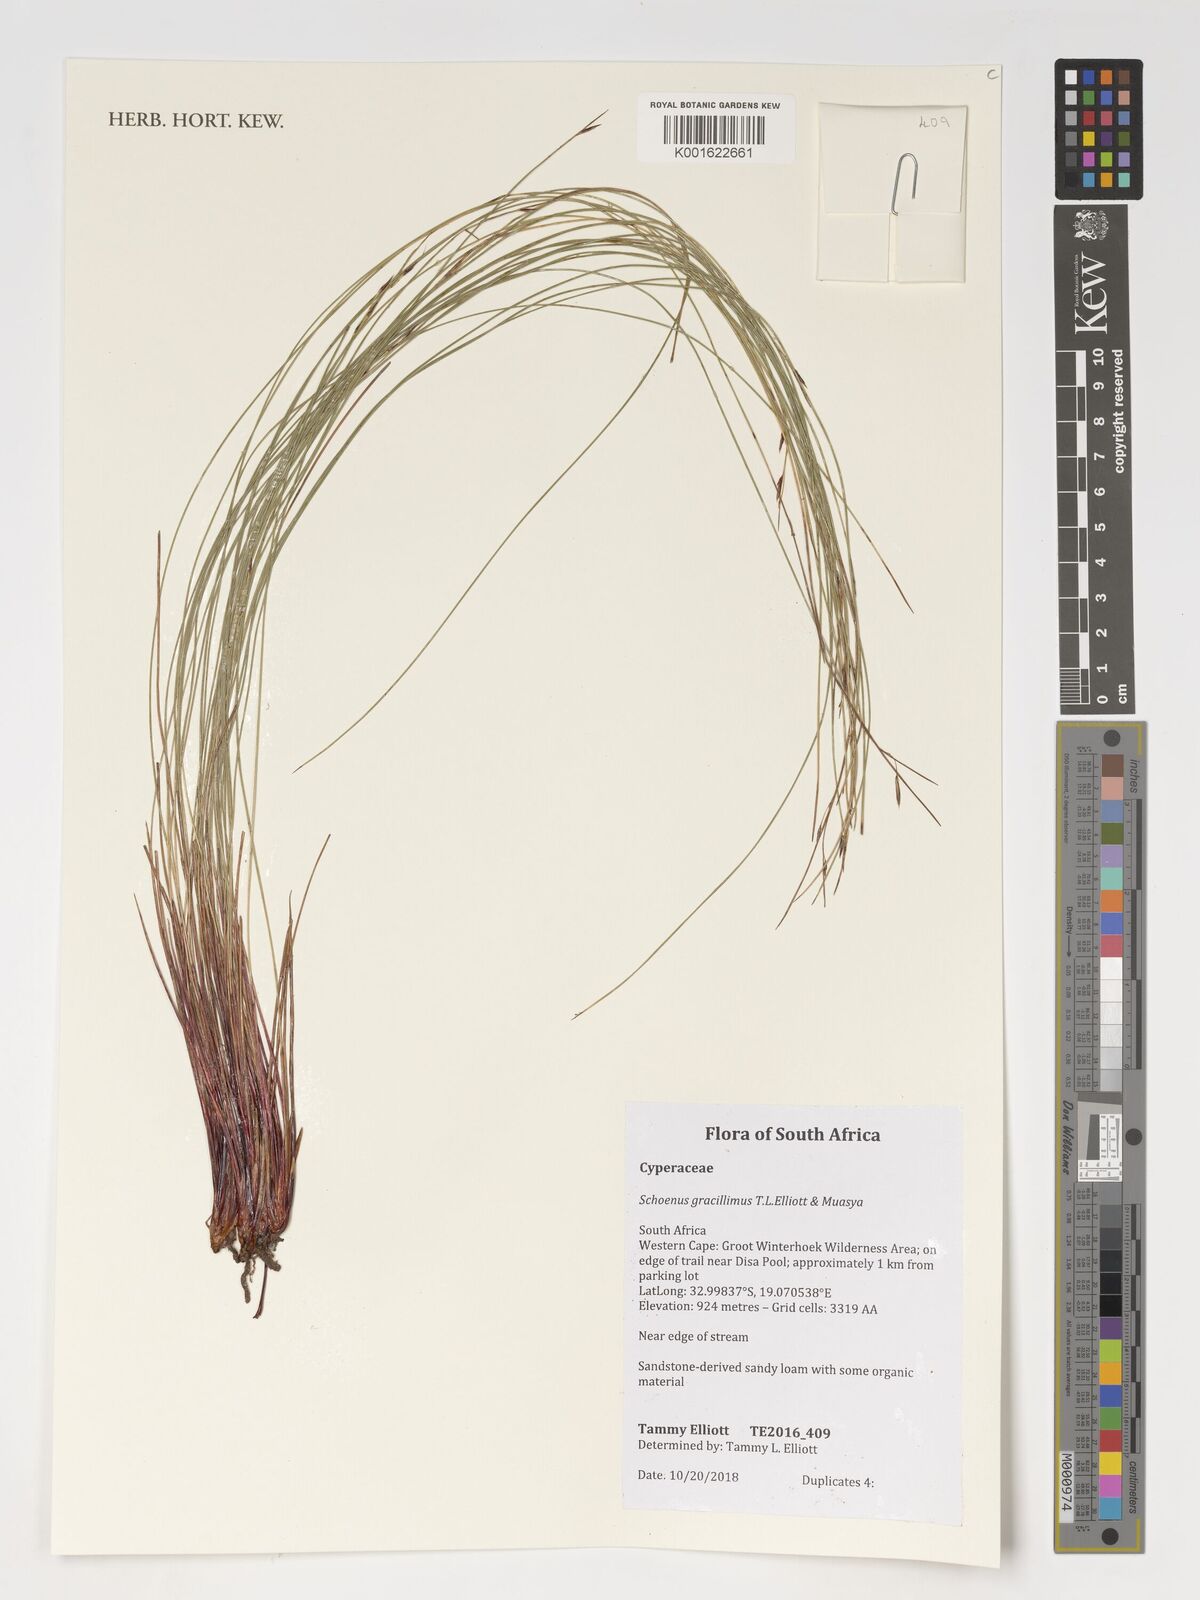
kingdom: Plantae
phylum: Tracheophyta
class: Liliopsida
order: Poales
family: Cyperaceae
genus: Schoenus
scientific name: Schoenus gracillimus
